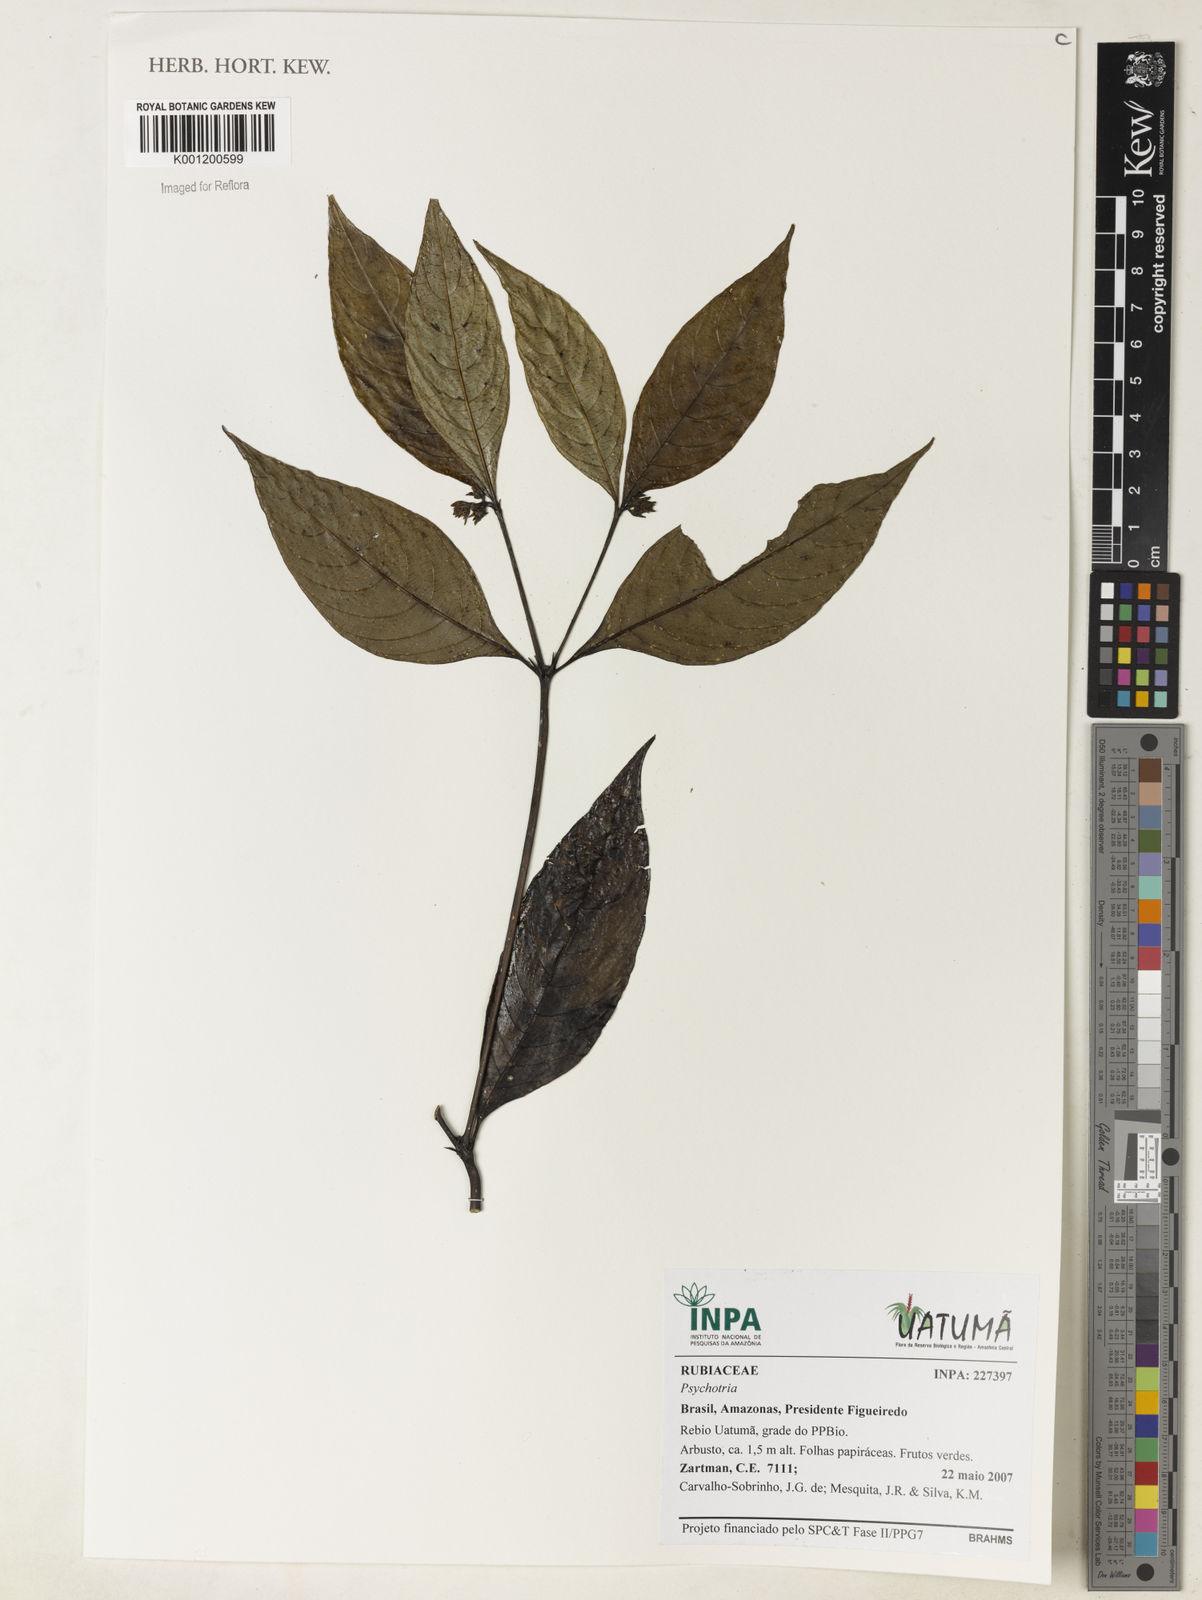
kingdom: Plantae
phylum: Tracheophyta
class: Magnoliopsida
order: Gentianales
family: Rubiaceae
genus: Psychotria
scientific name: Psychotria
